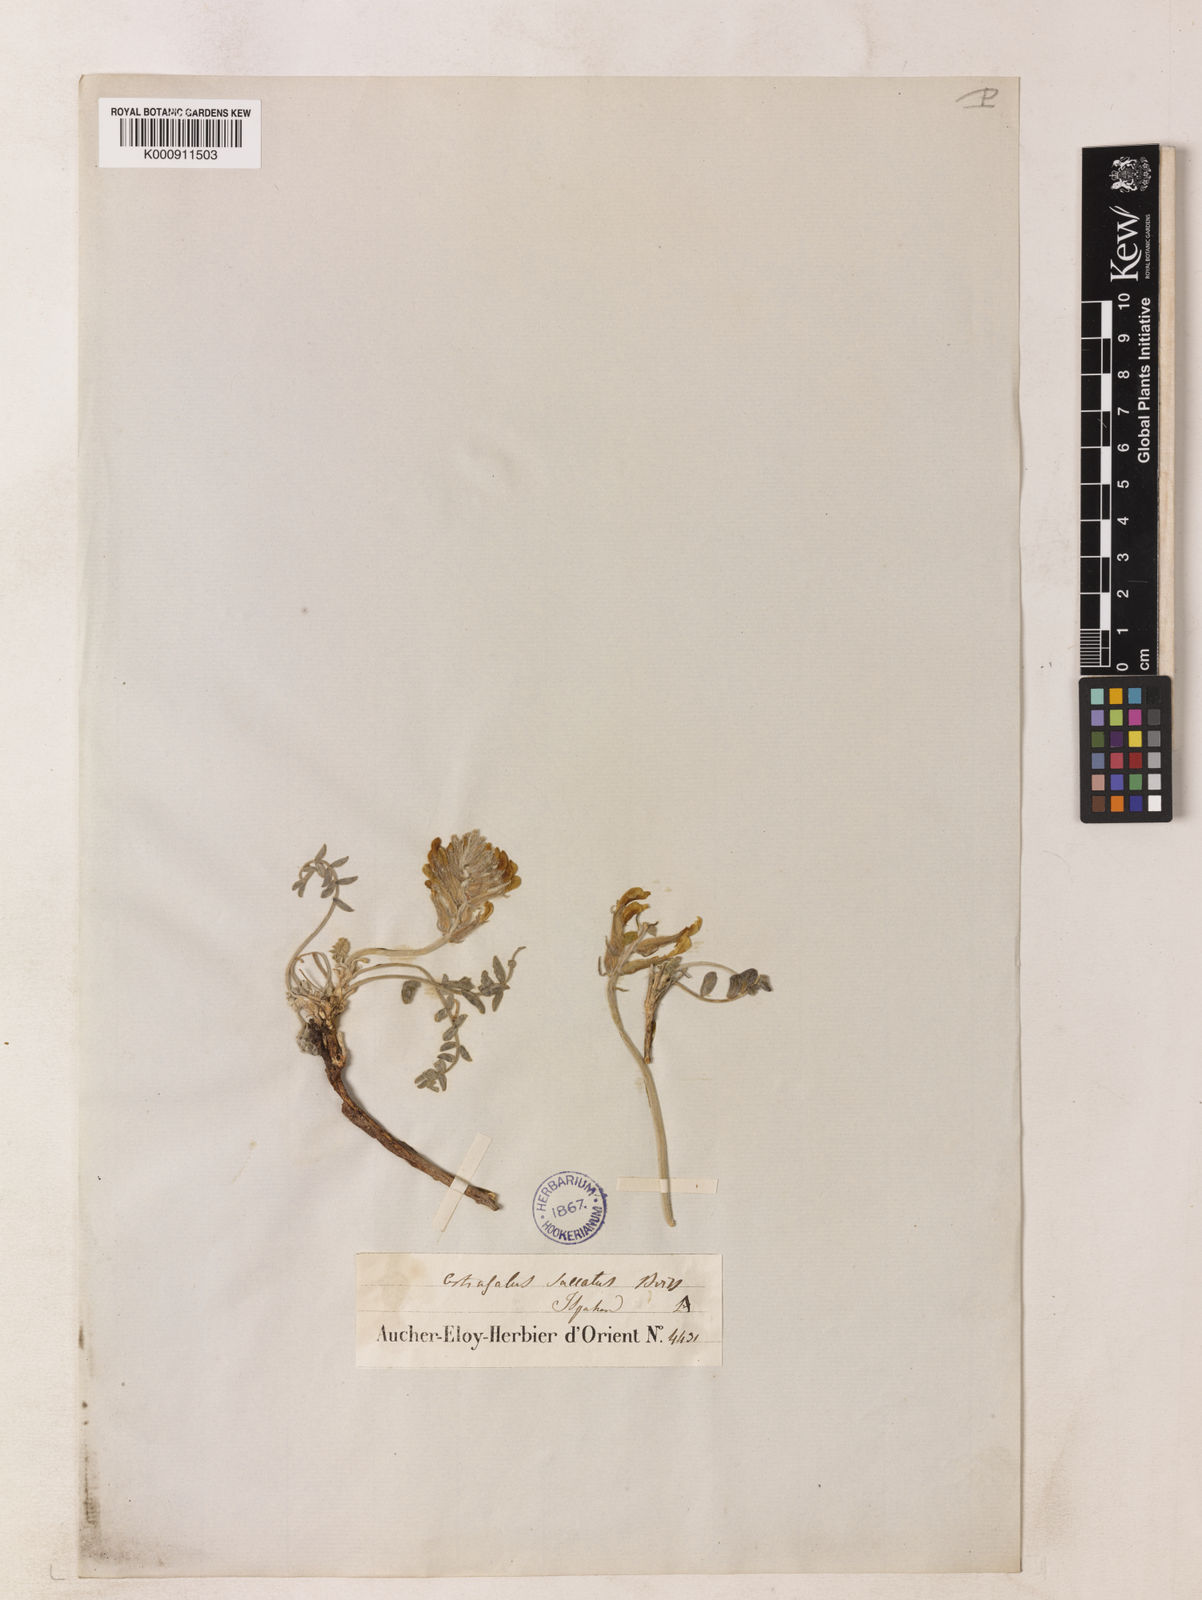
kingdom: Plantae
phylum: Tracheophyta
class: Magnoliopsida
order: Fabales
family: Fabaceae
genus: Astragalus
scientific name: Astragalus saccatus
